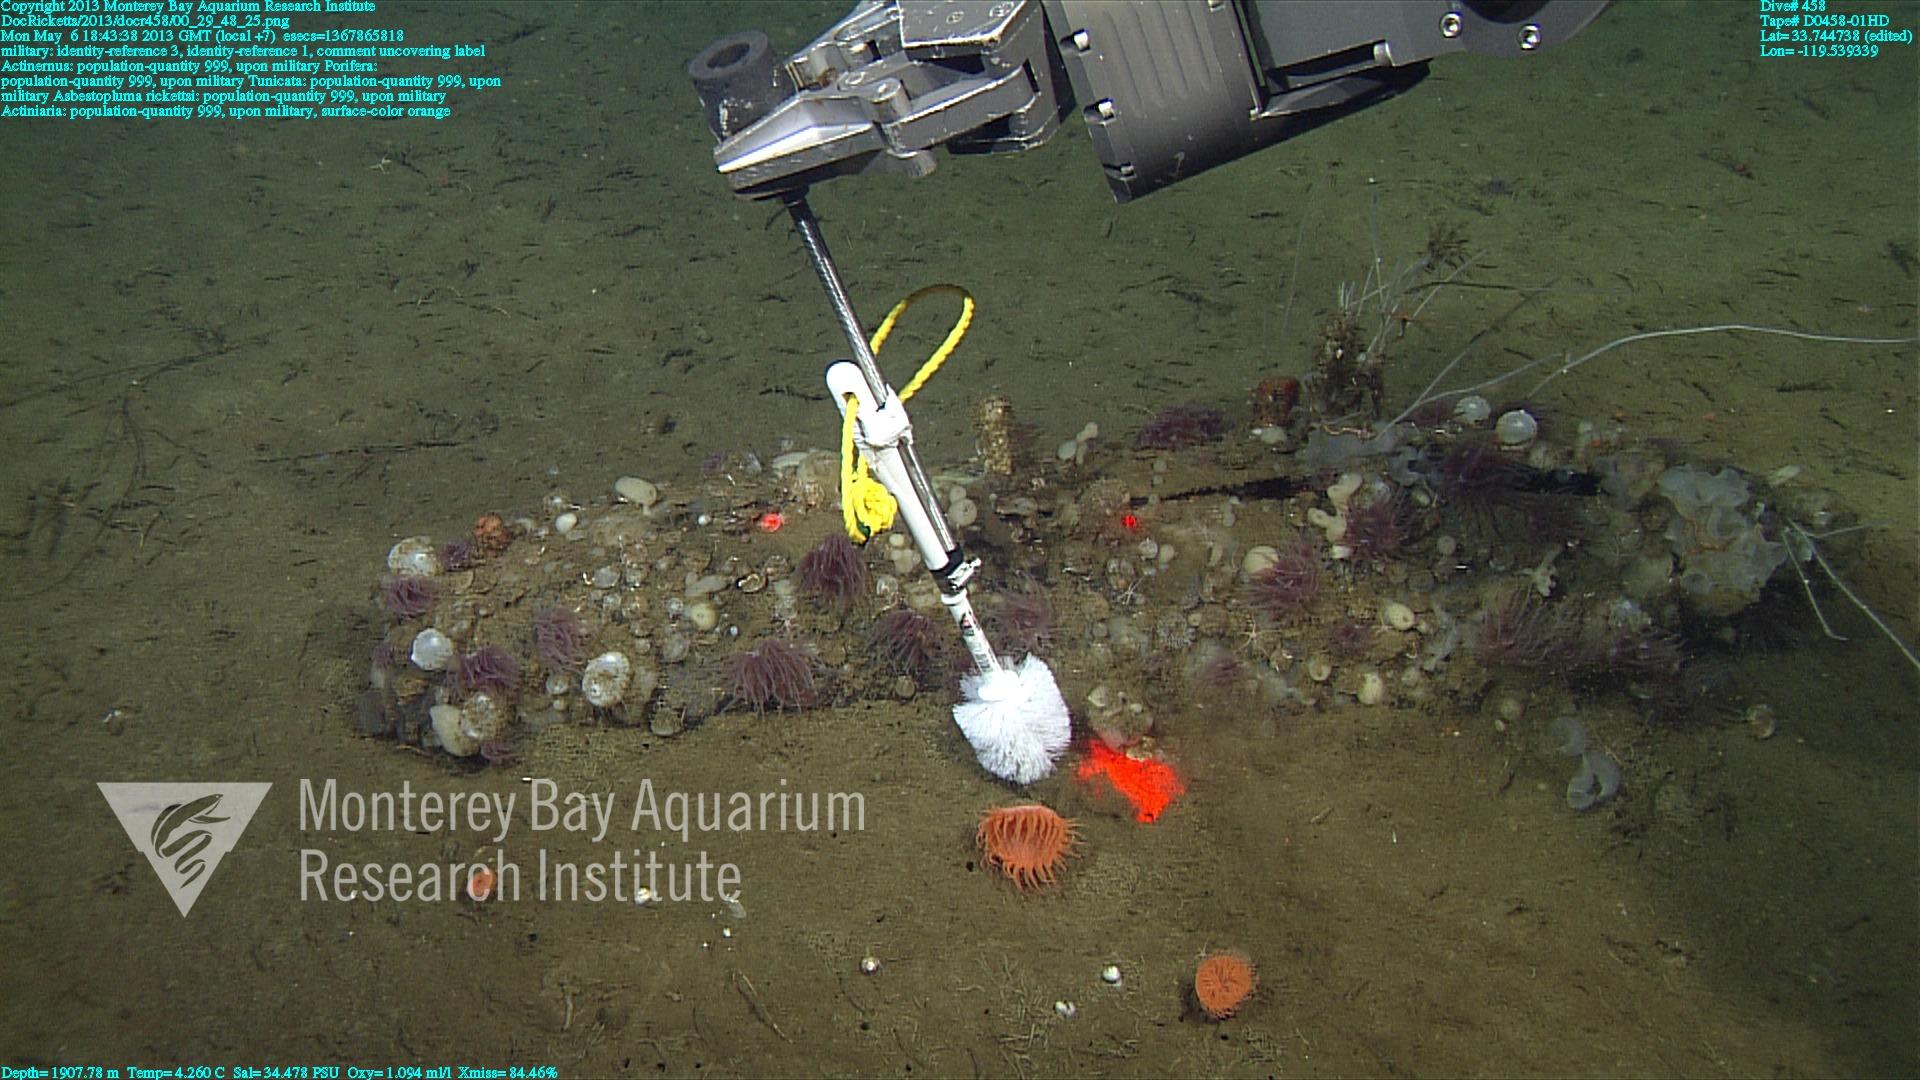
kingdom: Animalia
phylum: Porifera
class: Demospongiae
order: Poecilosclerida
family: Cladorhizidae
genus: Asbestopluma
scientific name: Asbestopluma rickettsi
